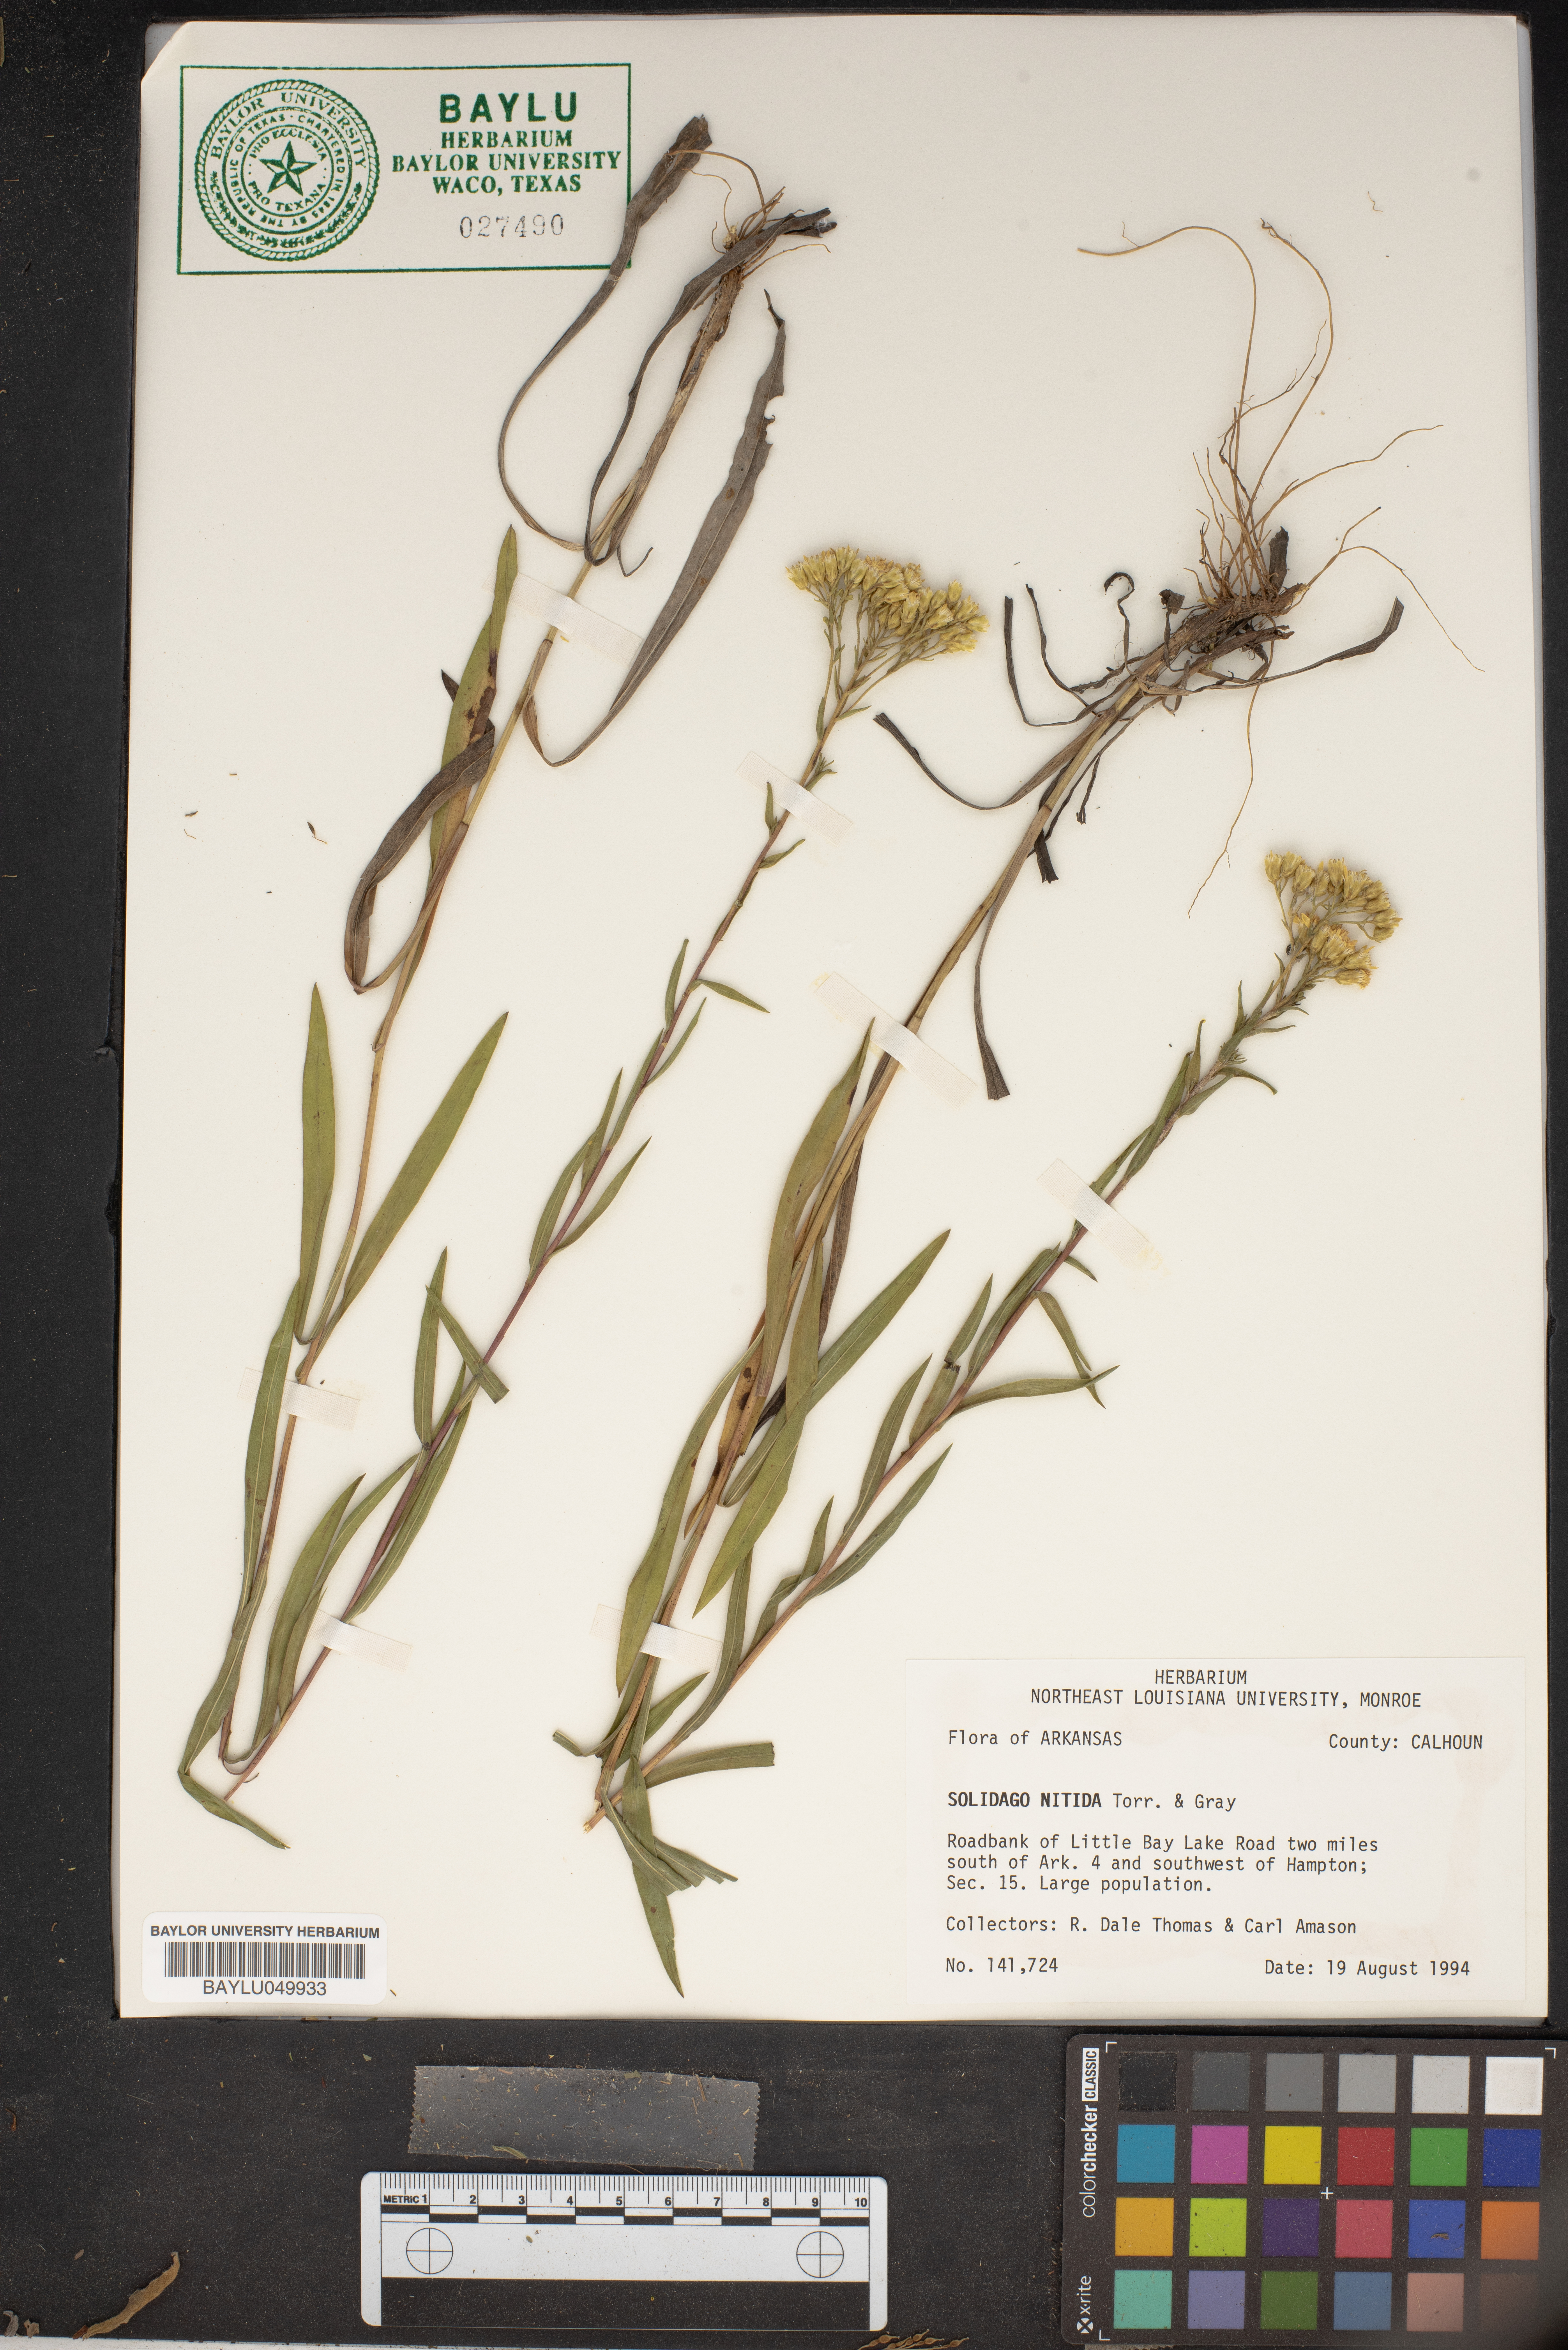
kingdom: Plantae
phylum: Tracheophyta
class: Magnoliopsida
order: Asterales
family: Asteraceae
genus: Solidago
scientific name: Solidago nitida
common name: Shiny goldenrod
